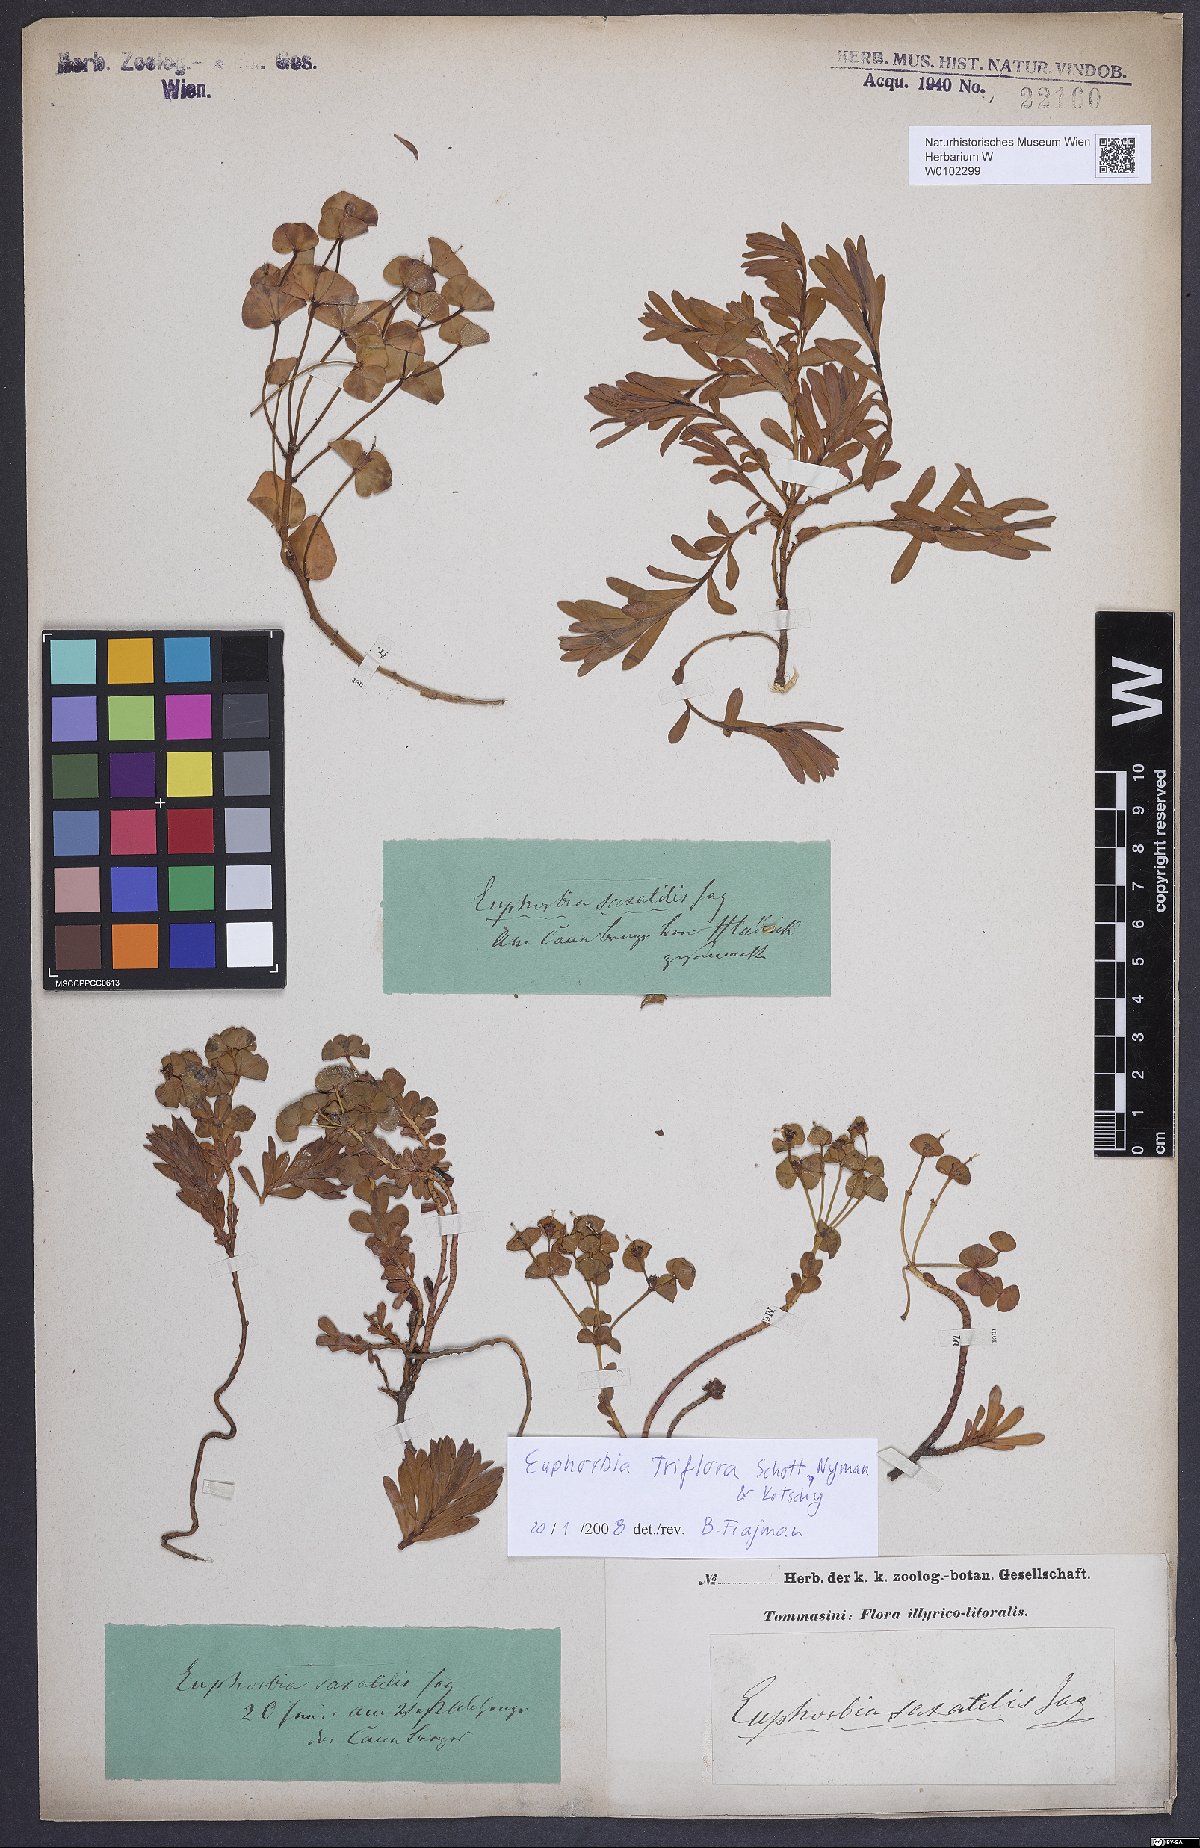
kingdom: Plantae
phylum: Tracheophyta
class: Magnoliopsida
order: Malpighiales
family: Euphorbiaceae
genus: Euphorbia
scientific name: Euphorbia triflora
